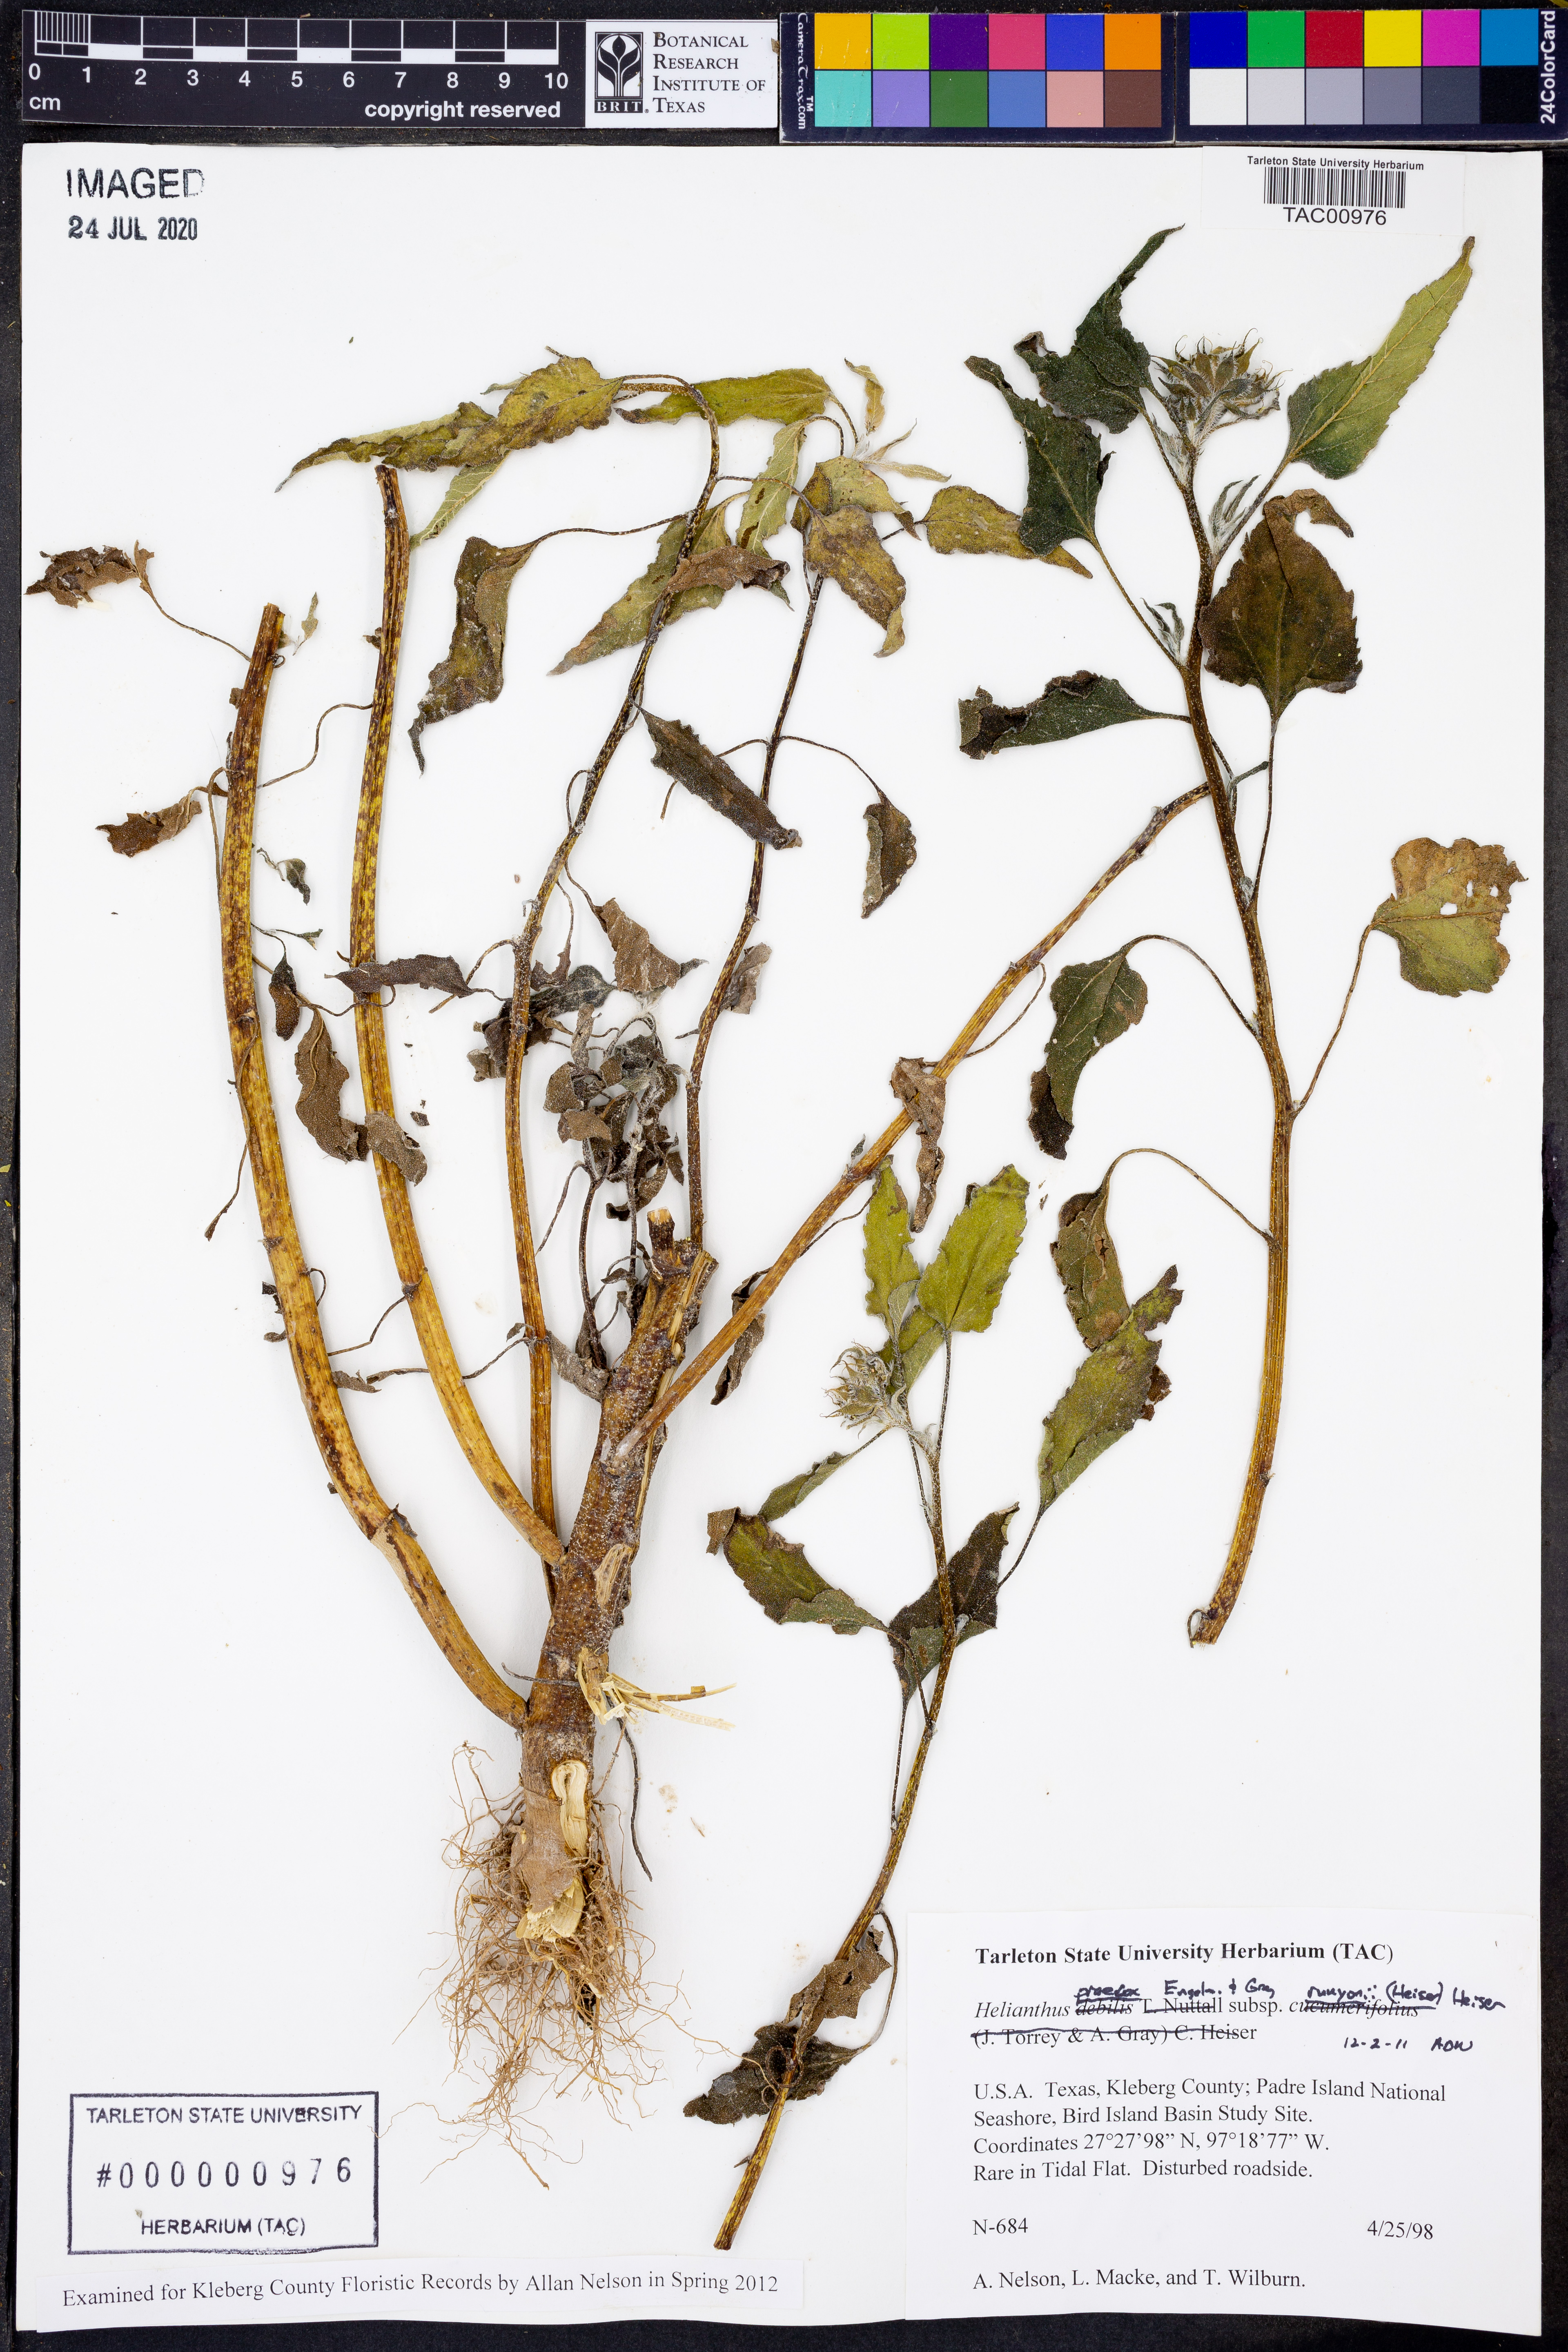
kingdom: Plantae
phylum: Tracheophyta
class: Magnoliopsida
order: Asterales
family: Asteraceae
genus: Helianthus
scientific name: Helianthus praecox
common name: Texas sunflower
